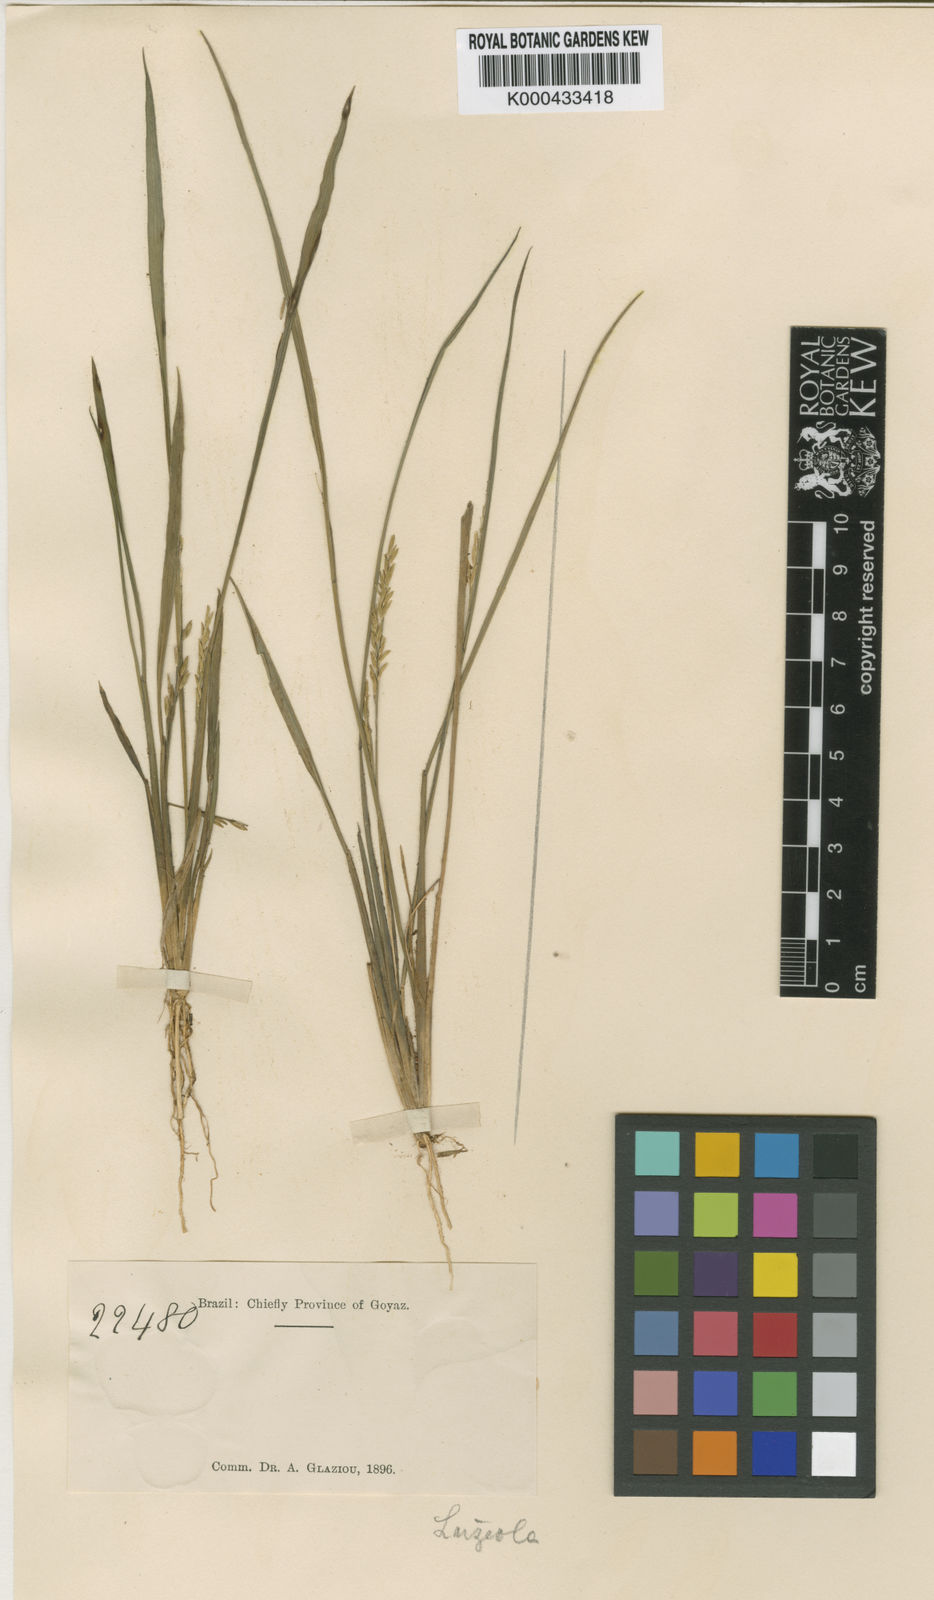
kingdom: Plantae
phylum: Tracheophyta
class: Liliopsida
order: Poales
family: Poaceae
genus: Luziola
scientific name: Luziola bahiensis
